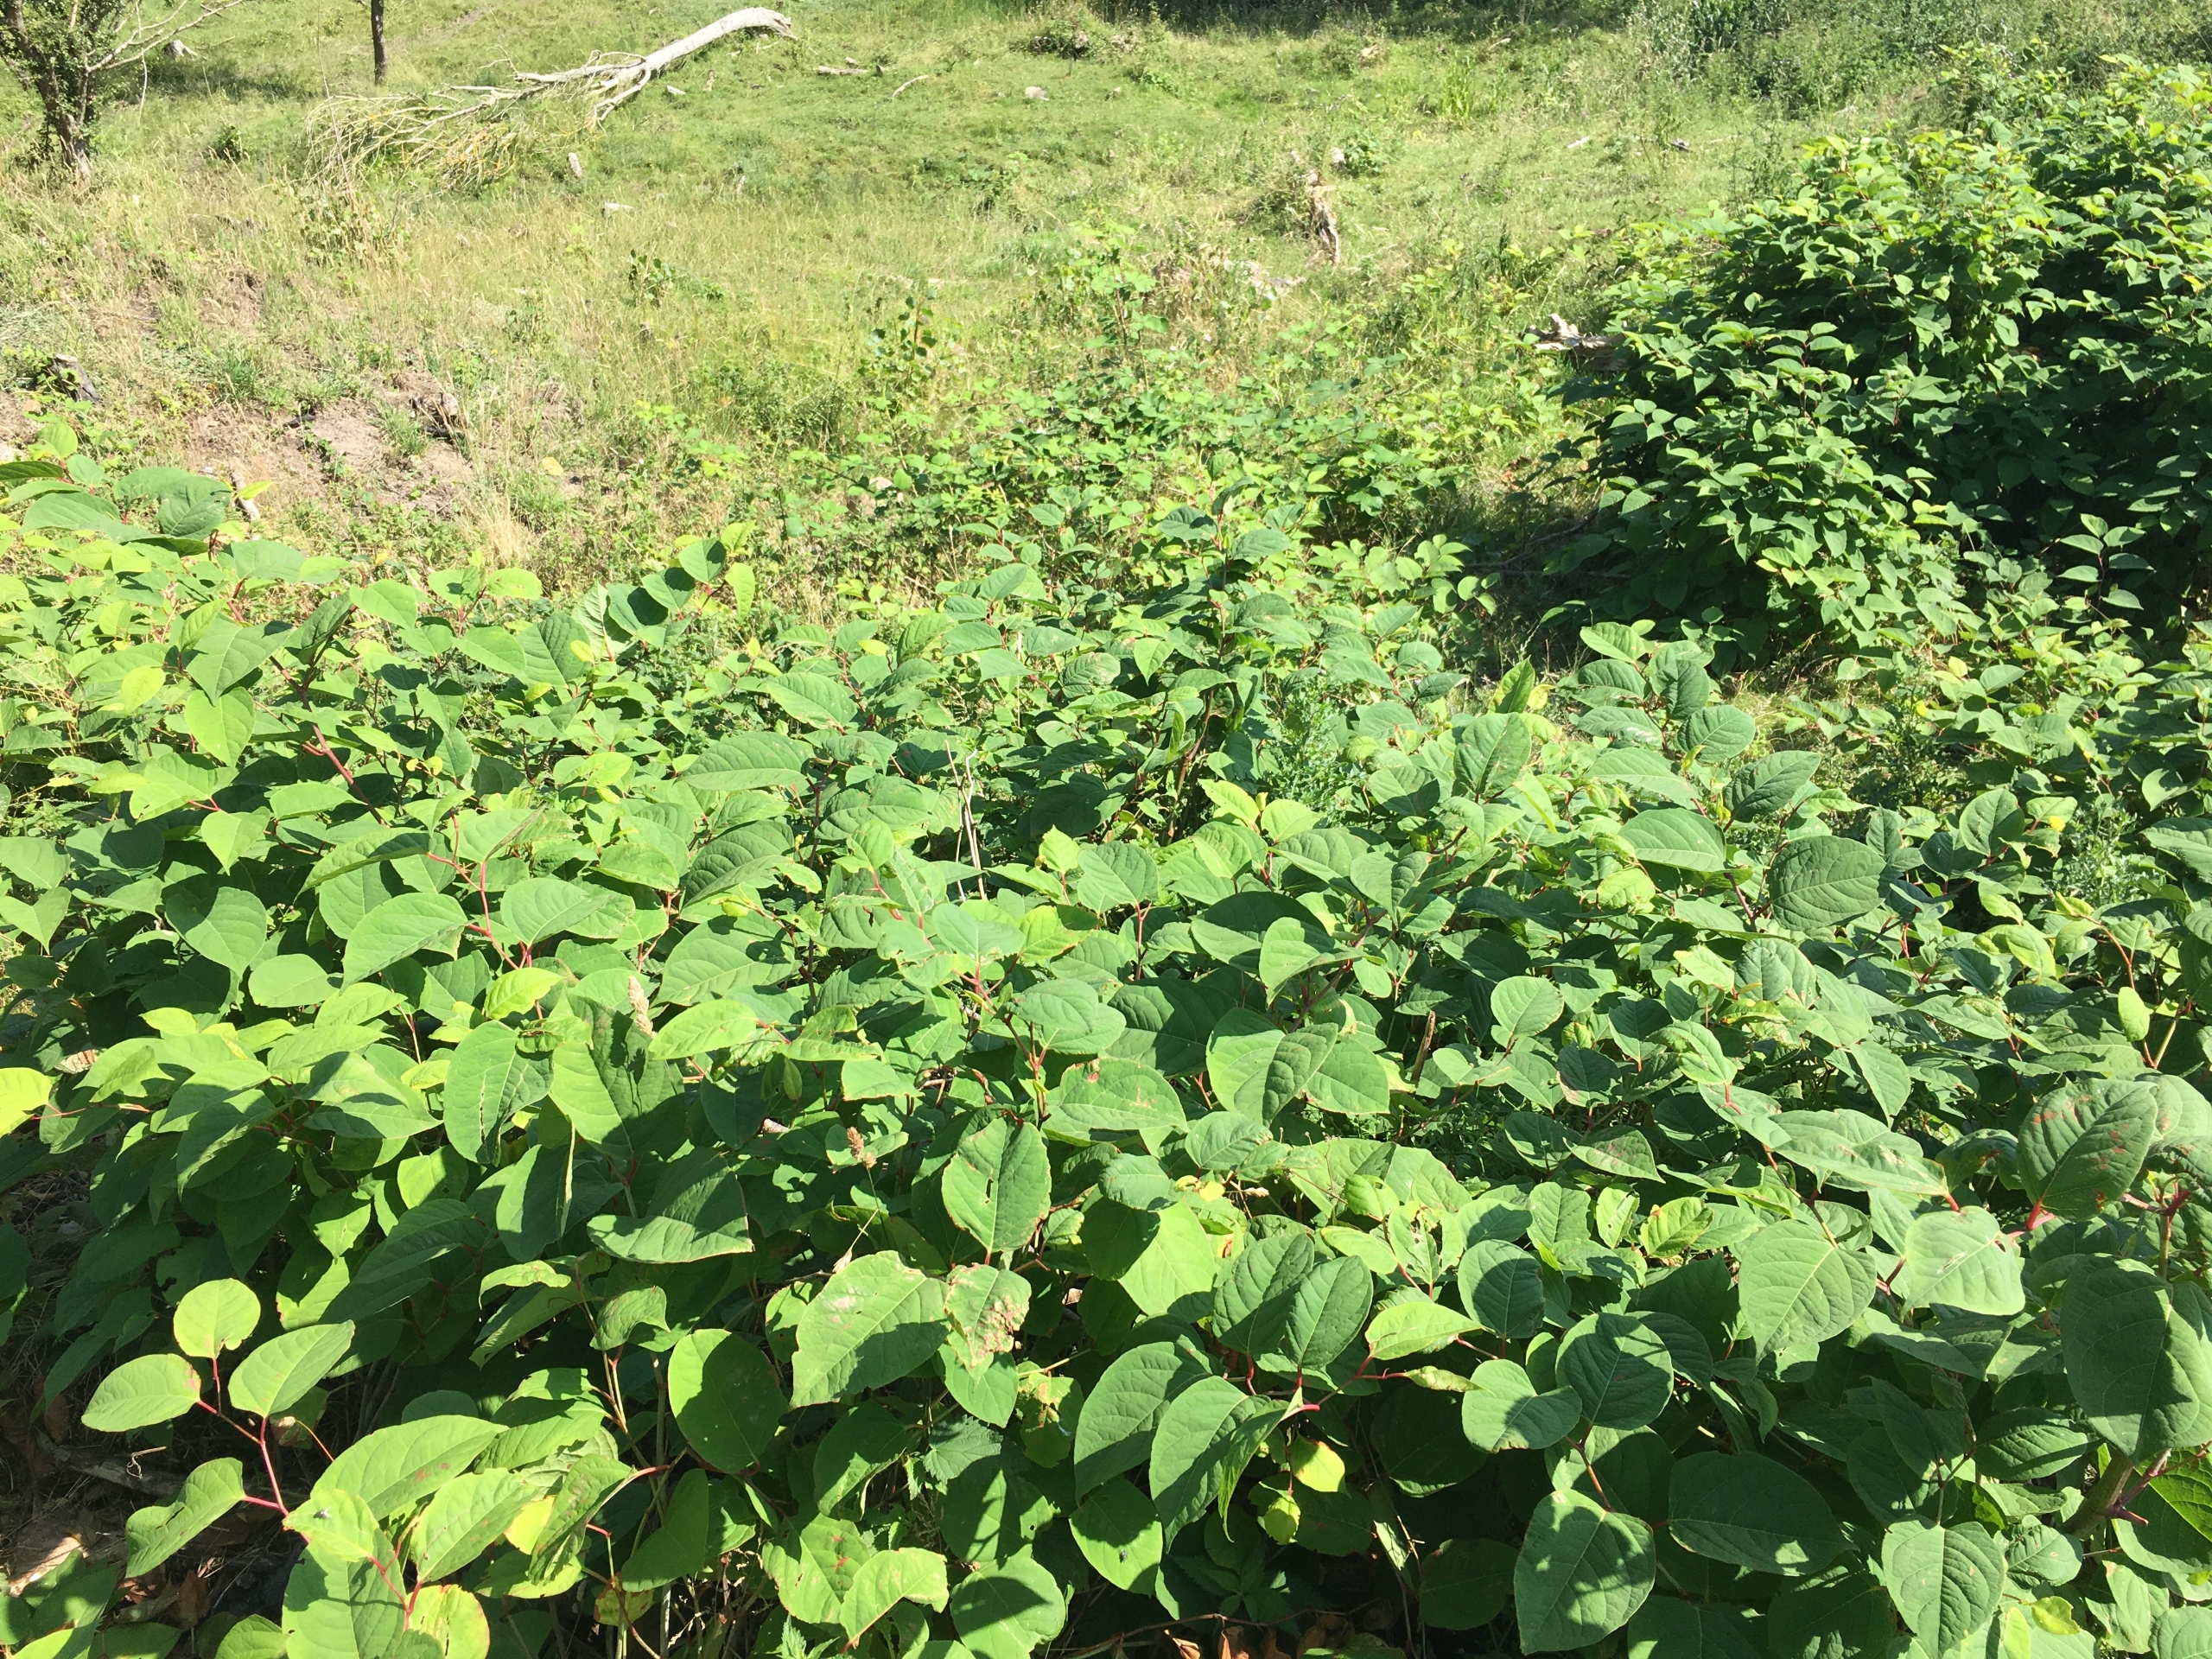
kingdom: Plantae
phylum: Tracheophyta
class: Magnoliopsida
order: Caryophyllales
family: Polygonaceae
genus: Reynoutria
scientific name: Reynoutria japonica
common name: Japan-pileurt
